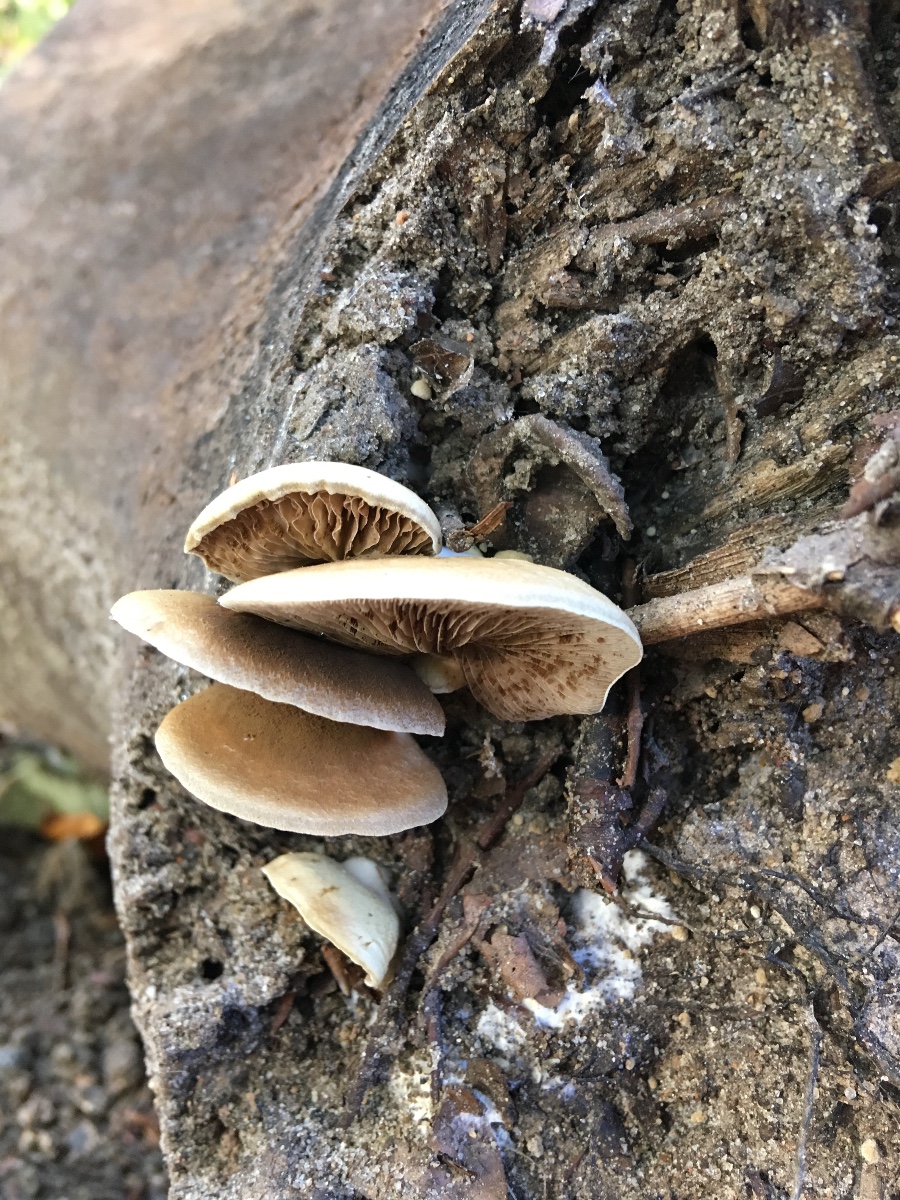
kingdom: Fungi
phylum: Basidiomycota
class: Agaricomycetes
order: Agaricales
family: Crepidotaceae
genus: Crepidotus
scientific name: Crepidotus mollis
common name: blød muslingesvamp
